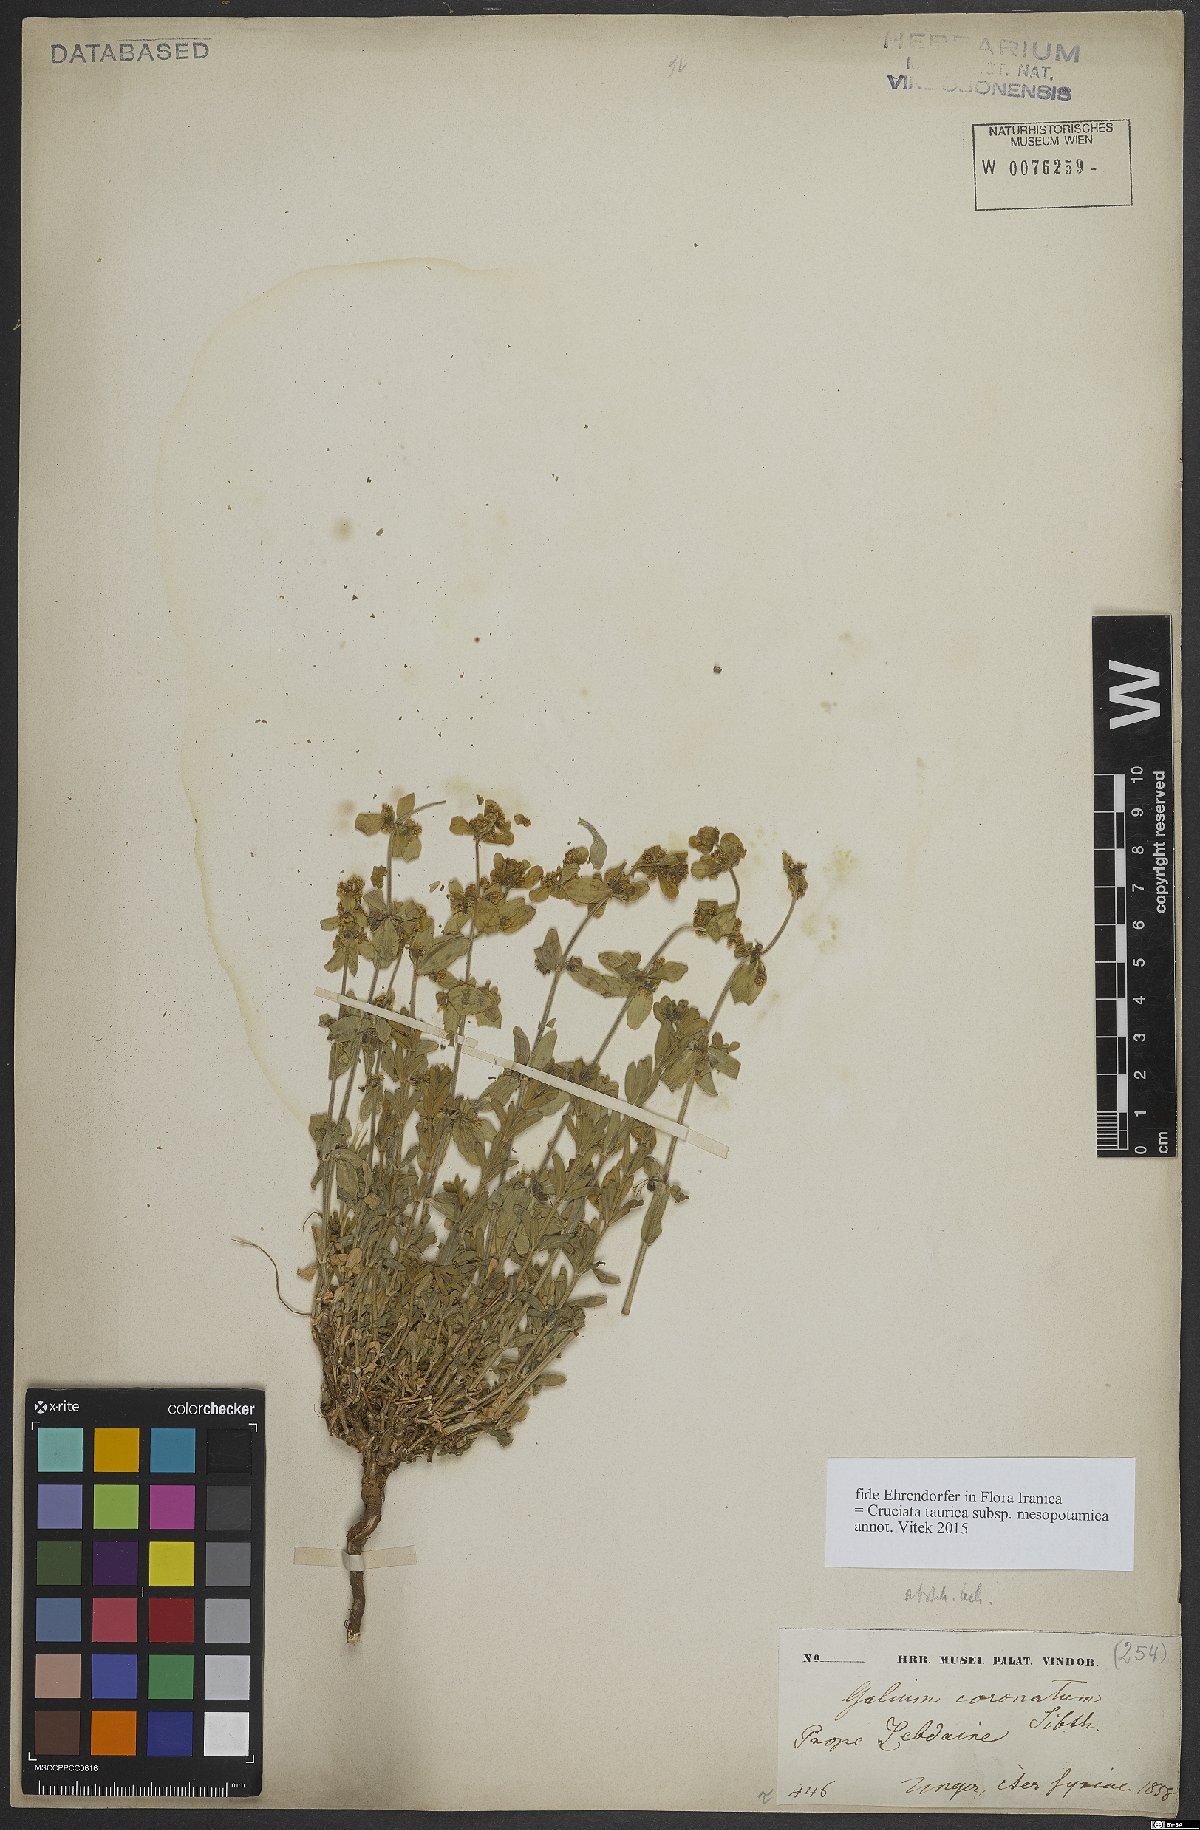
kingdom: Plantae
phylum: Tracheophyta
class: Magnoliopsida
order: Gentianales
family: Rubiaceae
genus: Cruciata
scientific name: Cruciata taurica
